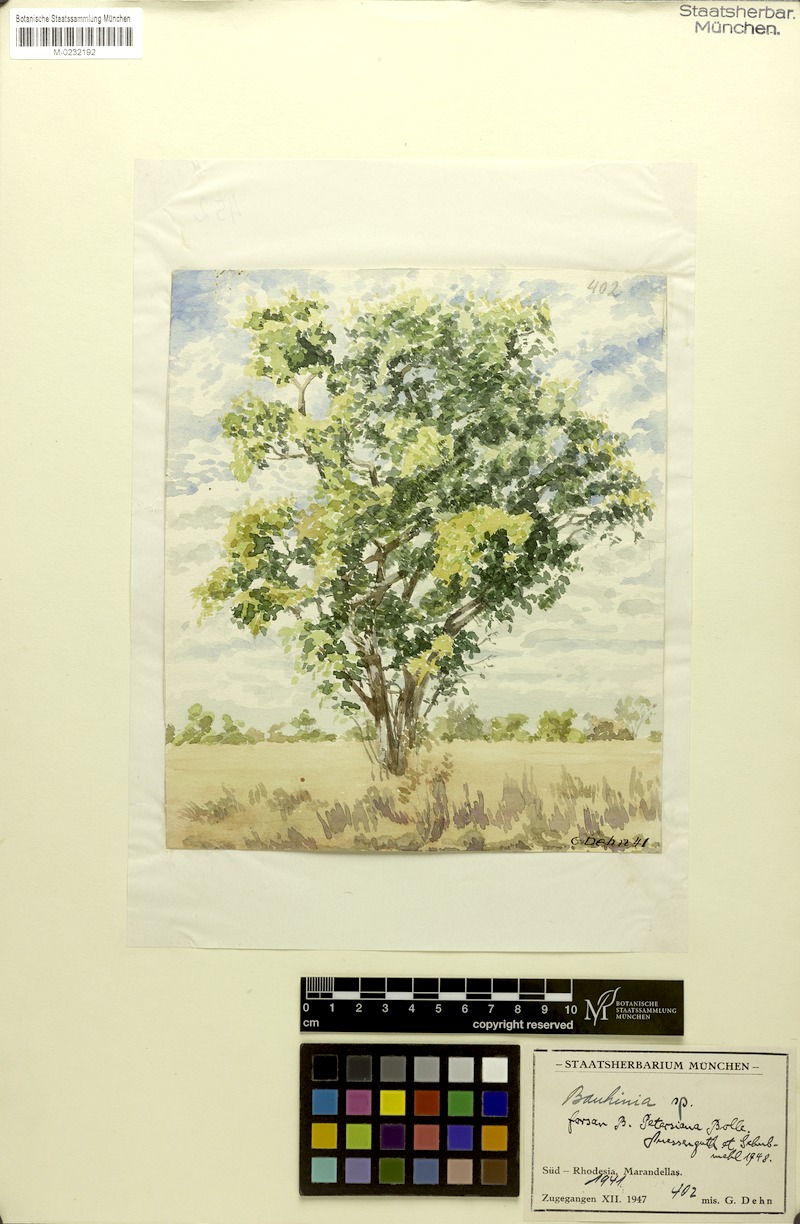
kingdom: Plantae
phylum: Tracheophyta
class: Magnoliopsida
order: Fabales
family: Fabaceae
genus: Bauhinia
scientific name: Bauhinia petersiana
